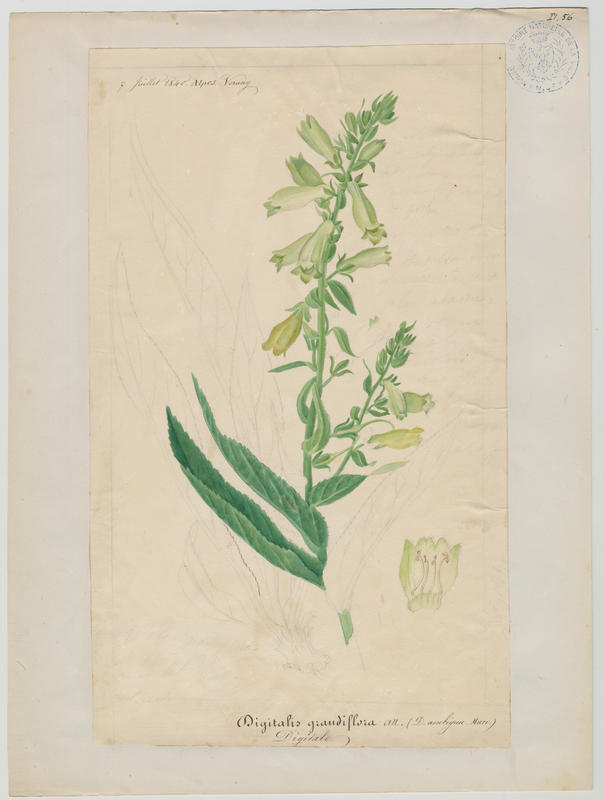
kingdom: Plantae
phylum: Tracheophyta
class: Magnoliopsida
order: Lamiales
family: Plantaginaceae
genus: Digitalis
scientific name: Digitalis grandiflora
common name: Yellow foxglove
